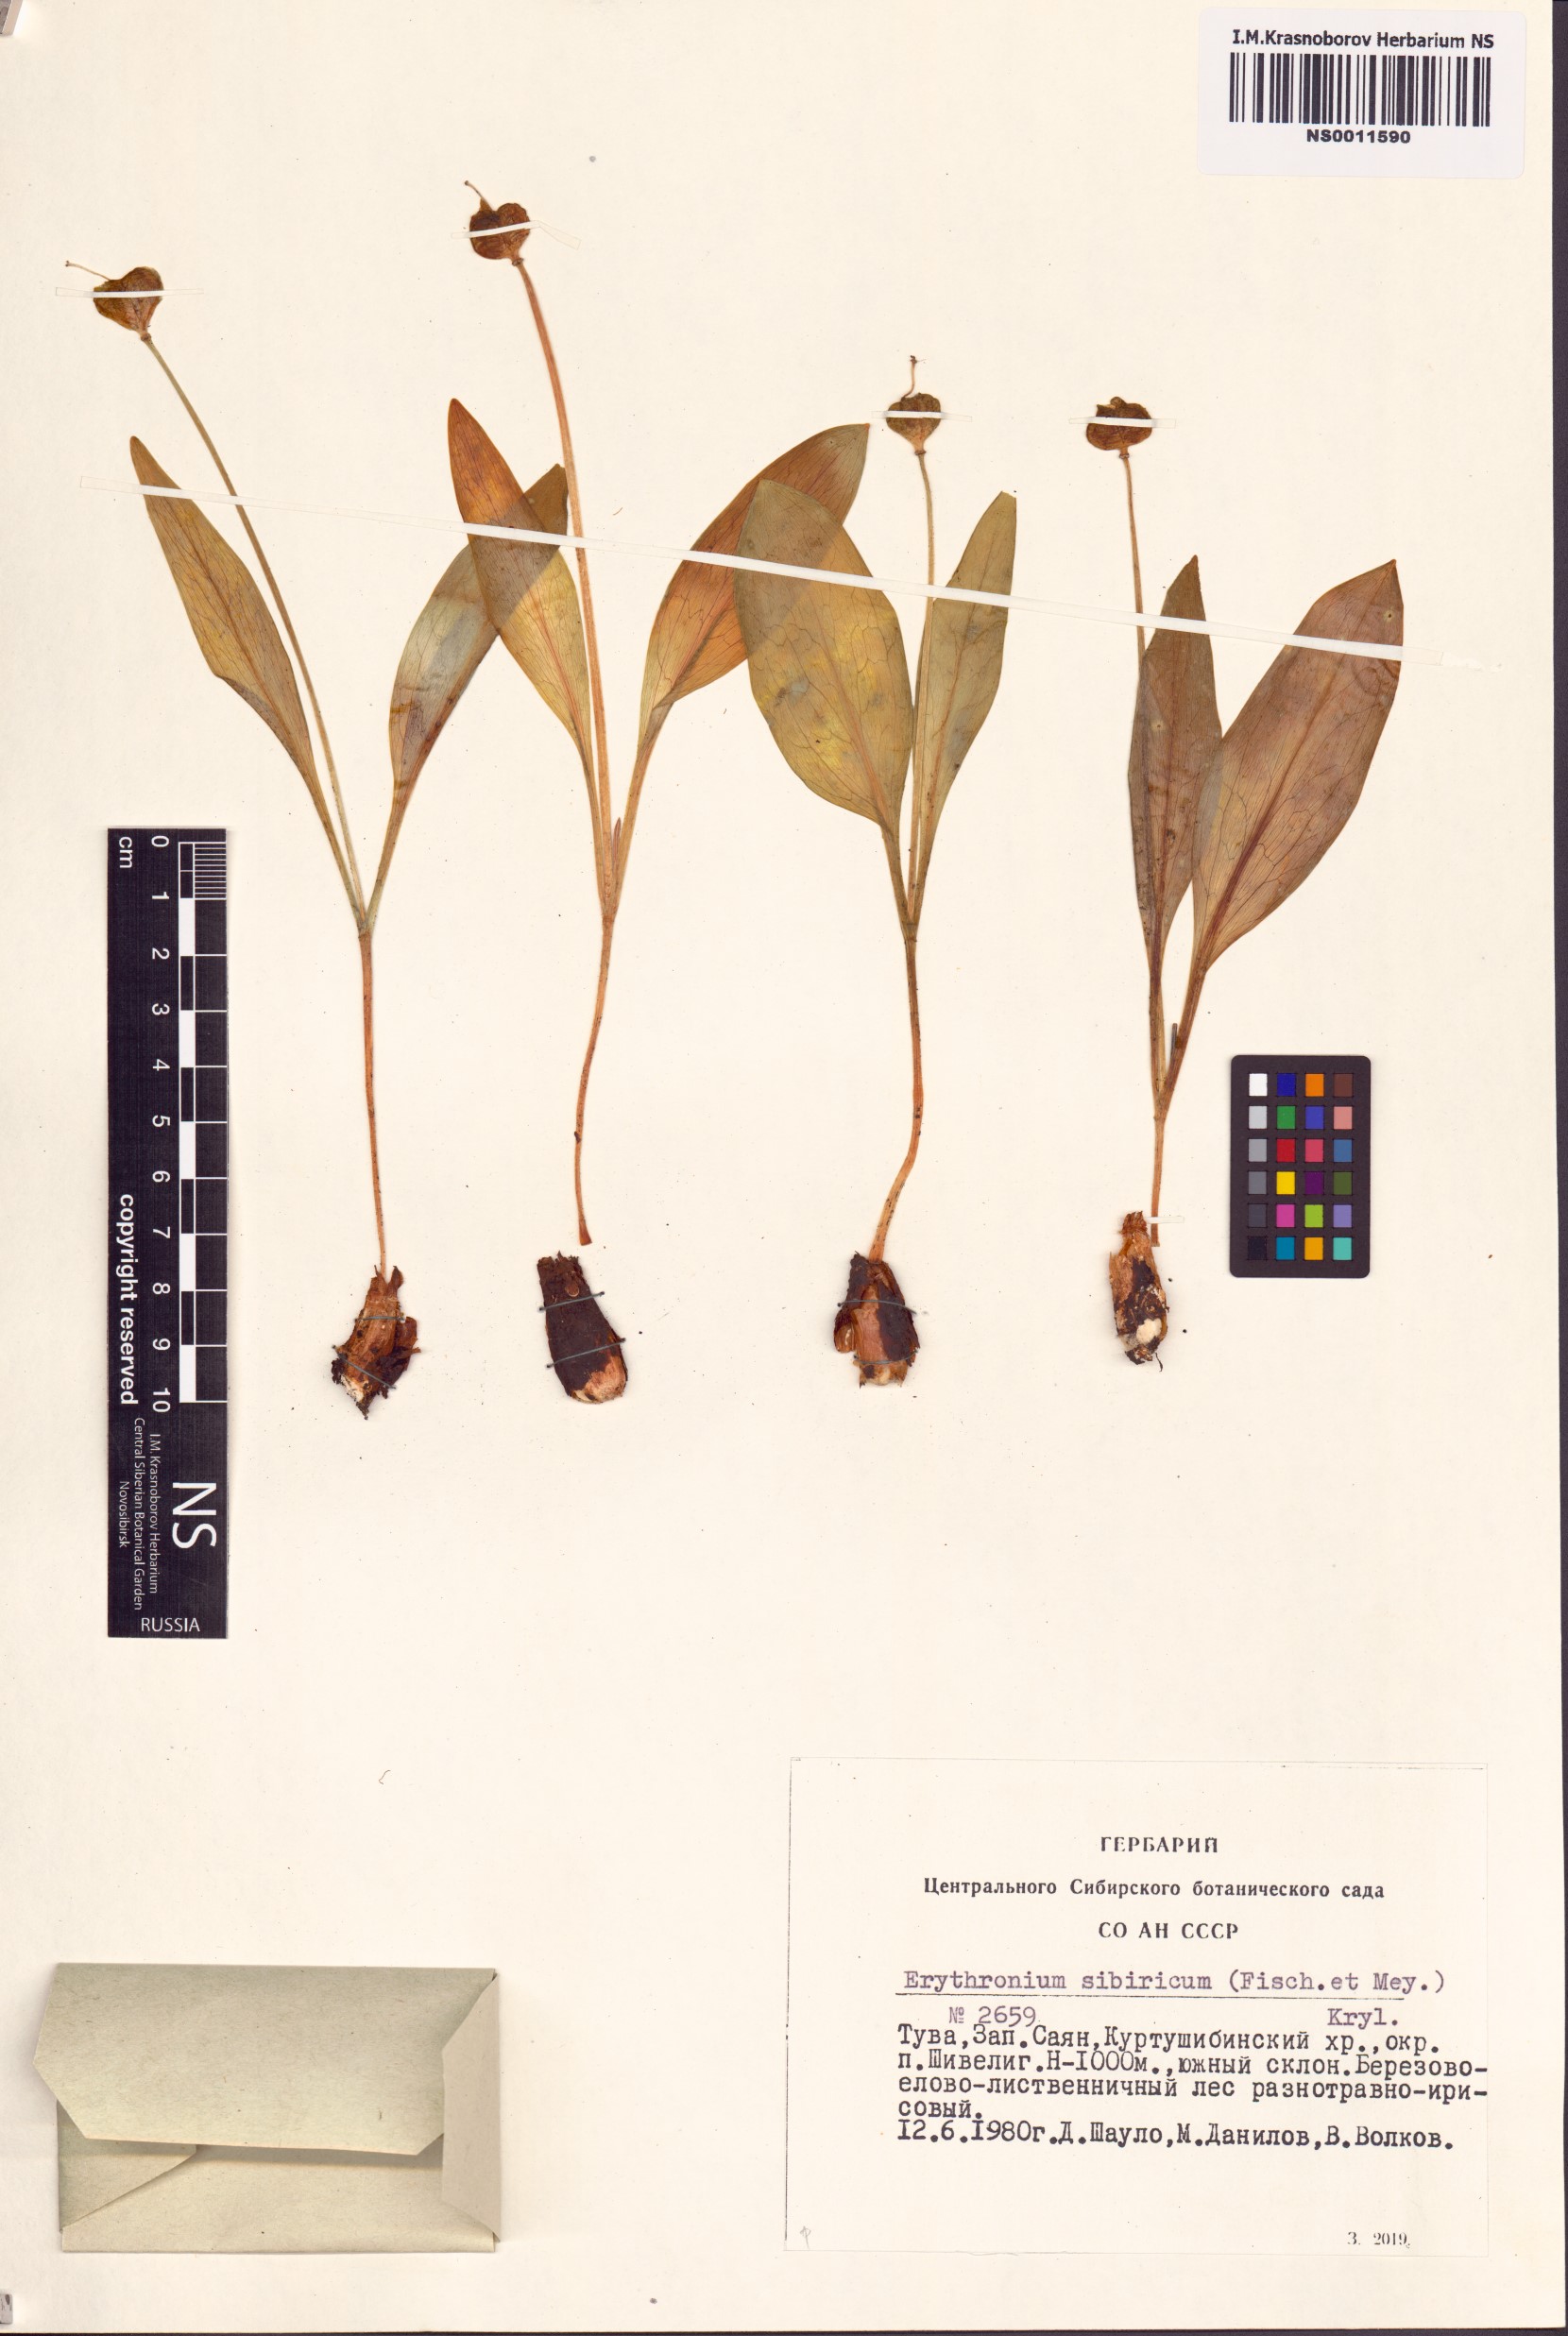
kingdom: Plantae
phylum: Tracheophyta
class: Liliopsida
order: Liliales
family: Liliaceae
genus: Erythronium
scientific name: Erythronium sibiricum
